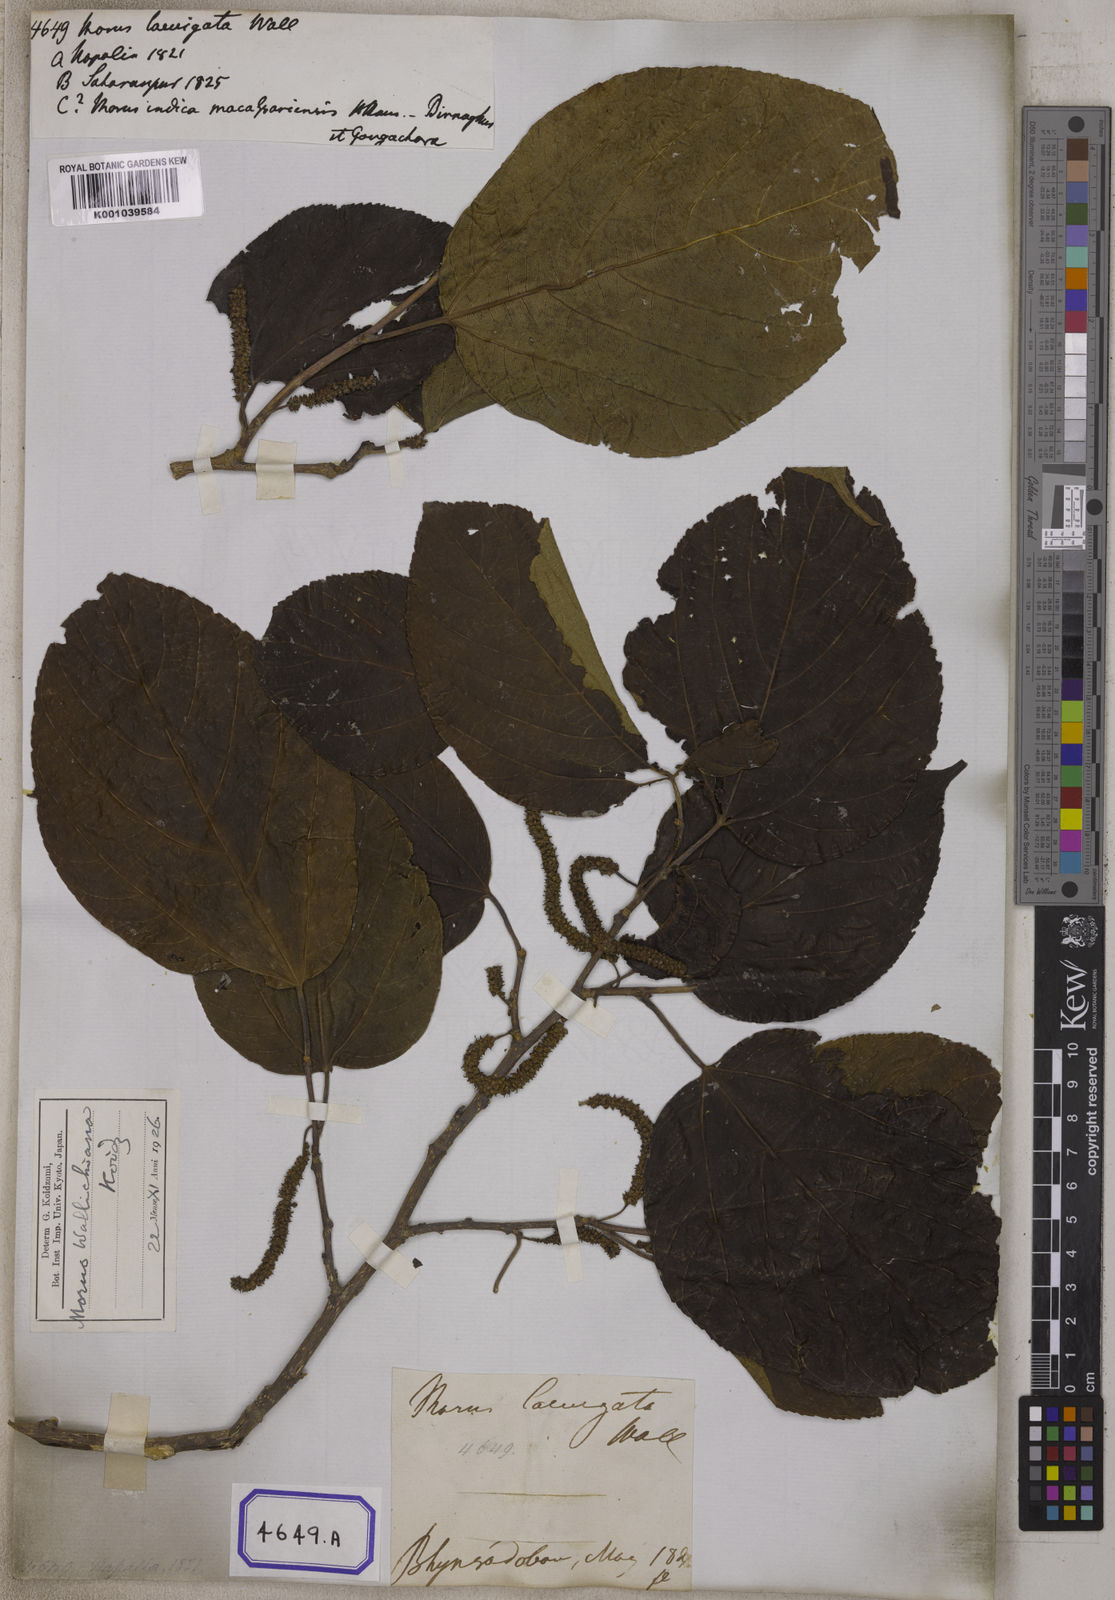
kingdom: Plantae
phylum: Tracheophyta
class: Magnoliopsida
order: Rosales
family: Moraceae
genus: Morus
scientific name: Morus
